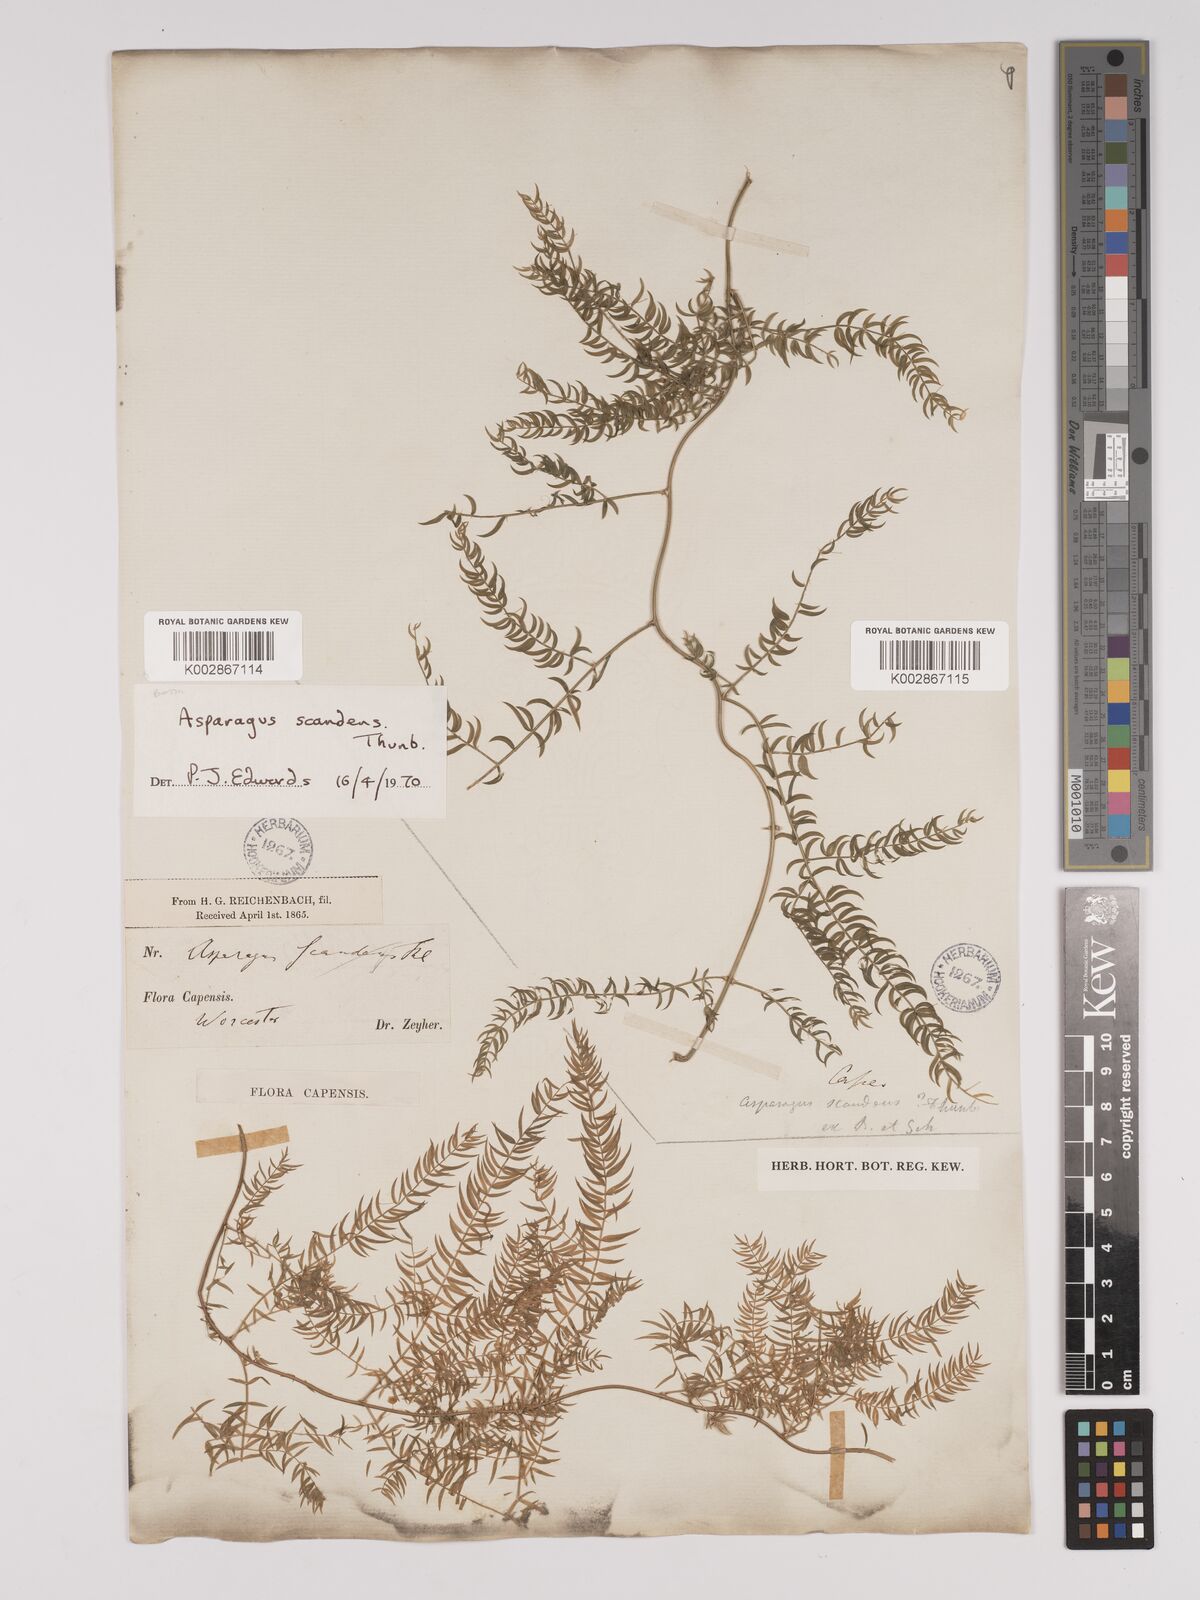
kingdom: Plantae
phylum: Tracheophyta
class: Liliopsida
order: Asparagales
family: Asparagaceae
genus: Asparagus
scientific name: Asparagus scandens
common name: Asparagus-fern
